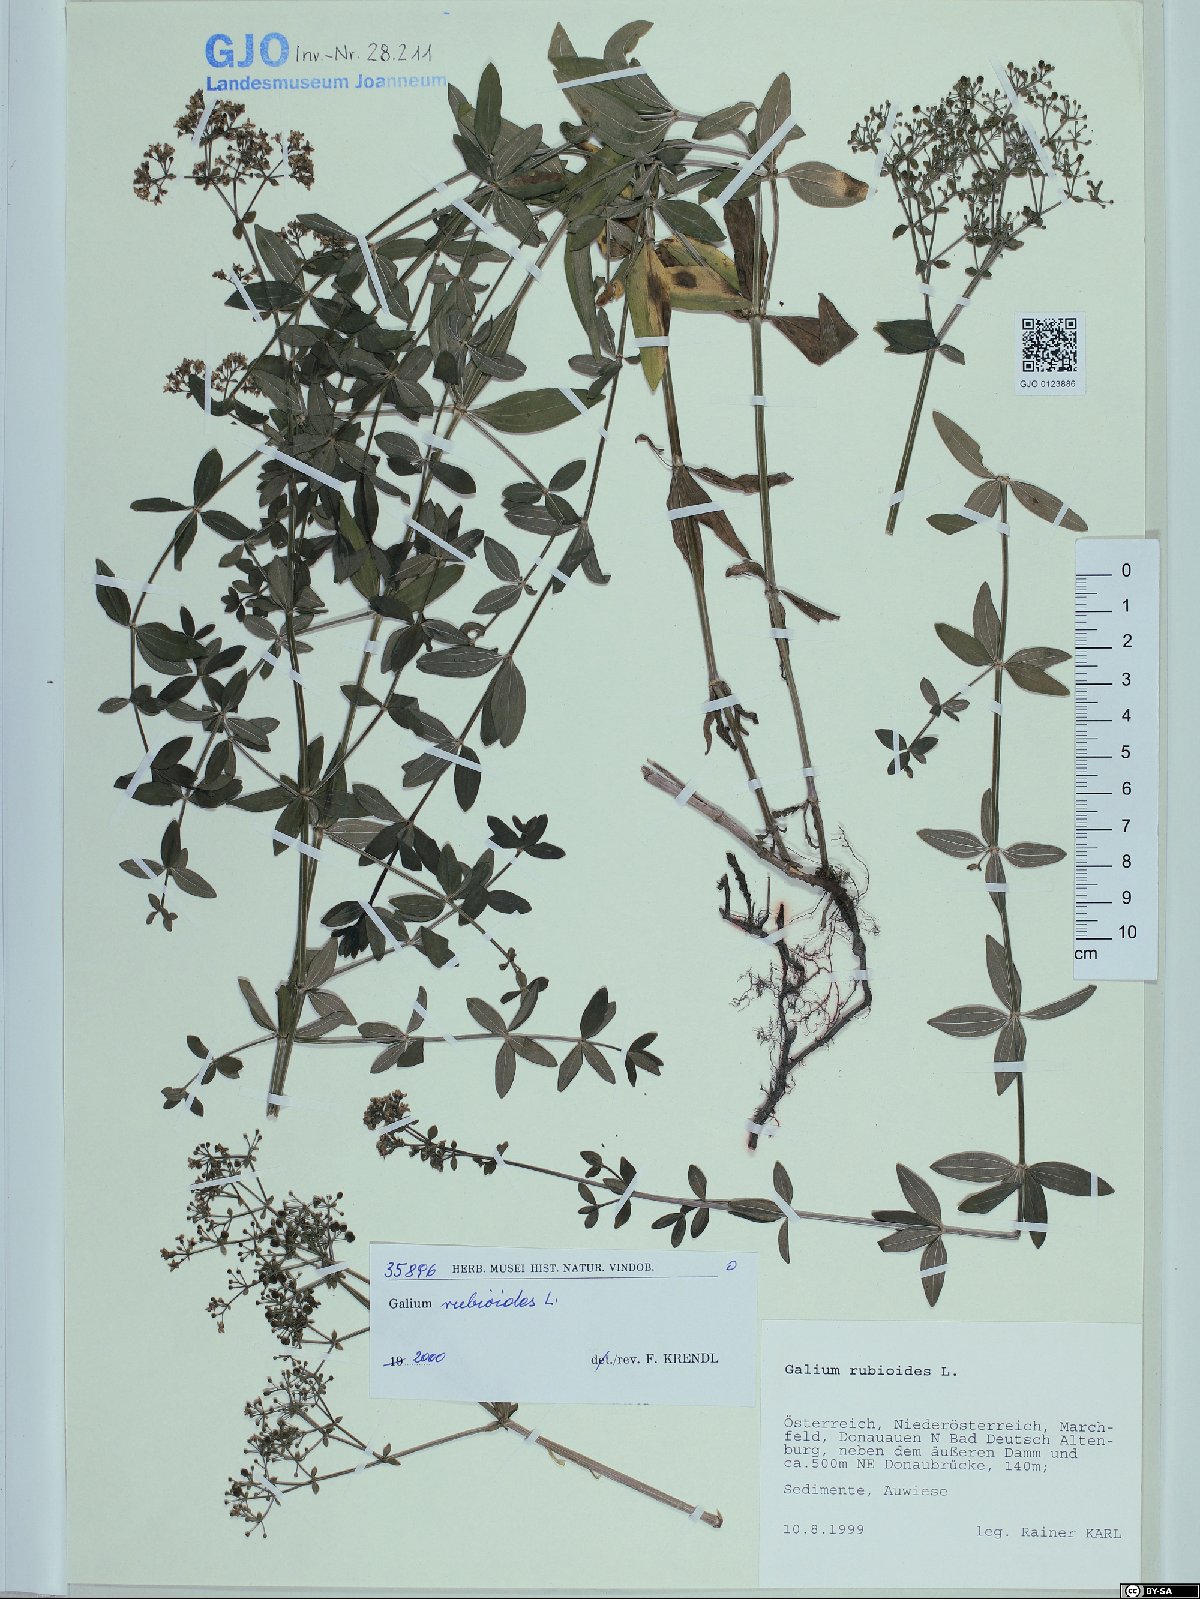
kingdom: Plantae
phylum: Tracheophyta
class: Magnoliopsida
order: Gentianales
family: Rubiaceae
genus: Galium
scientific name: Galium rubioides
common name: European bedstraw
